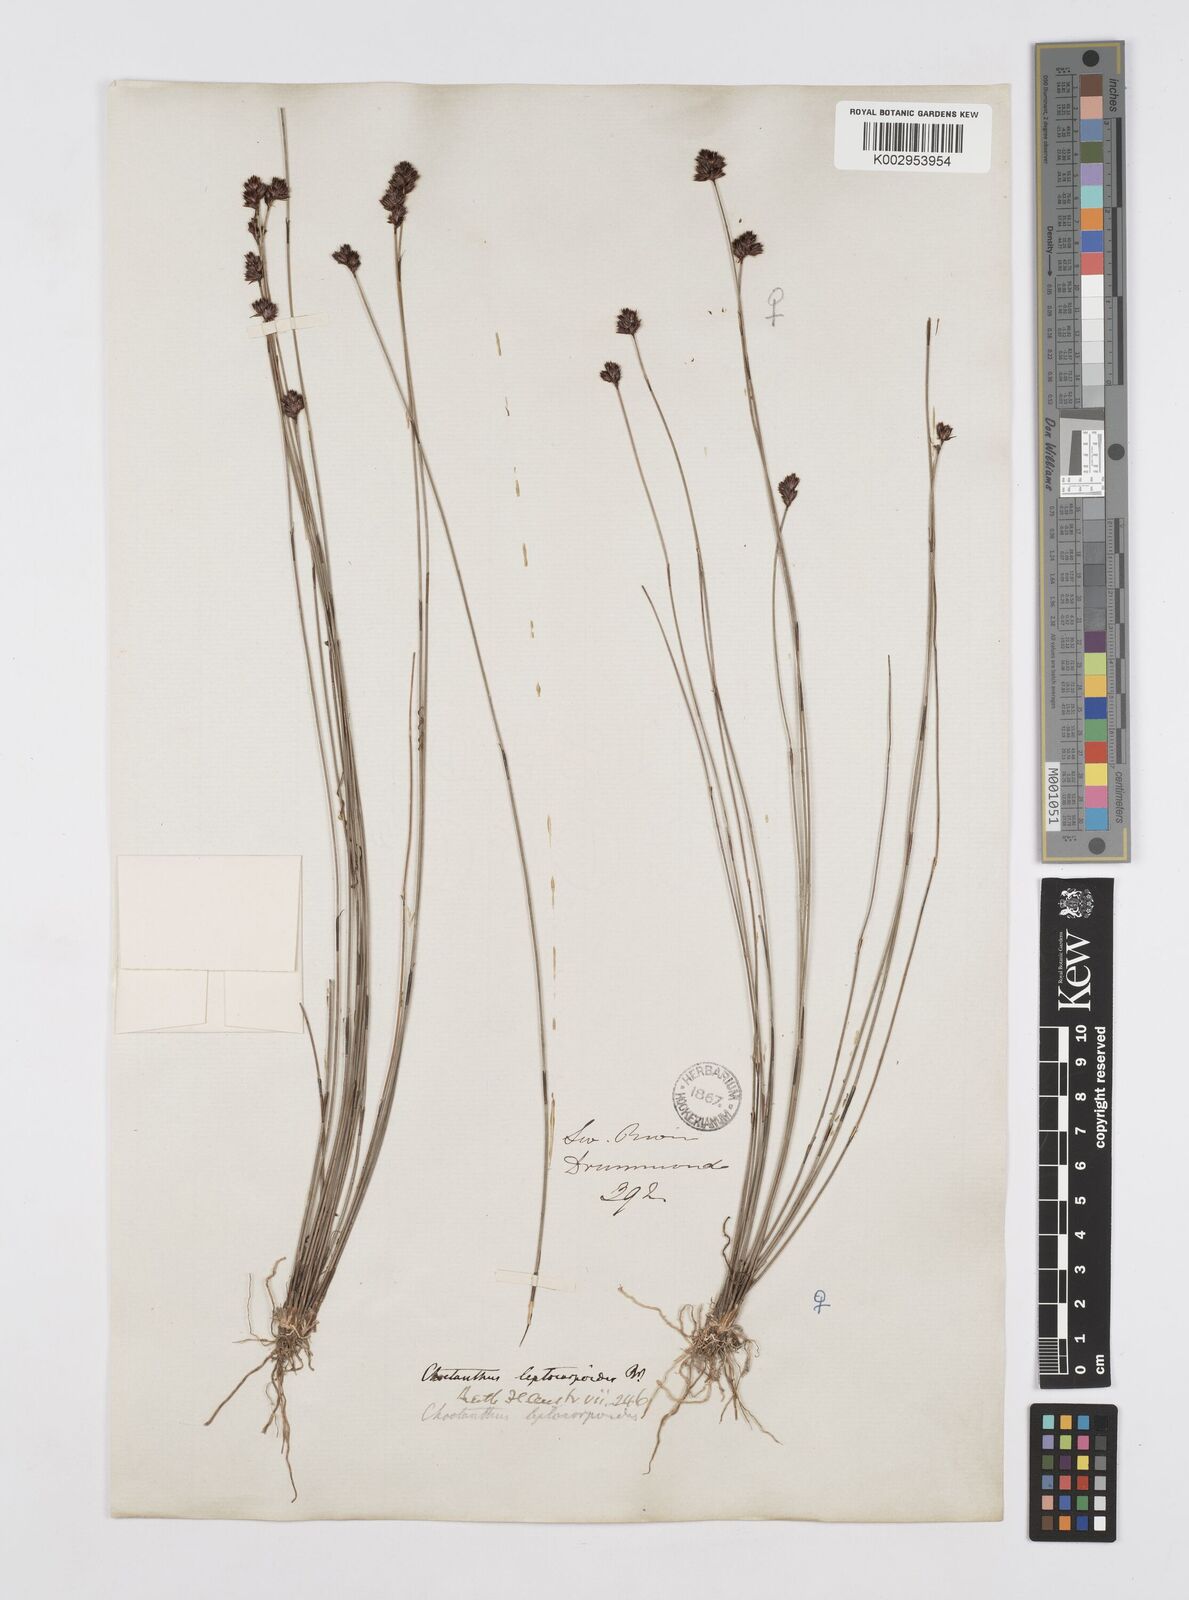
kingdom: Plantae
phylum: Tracheophyta
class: Liliopsida
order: Poales
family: Restionaceae
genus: Chaetanthus
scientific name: Chaetanthus leptocarpoides
